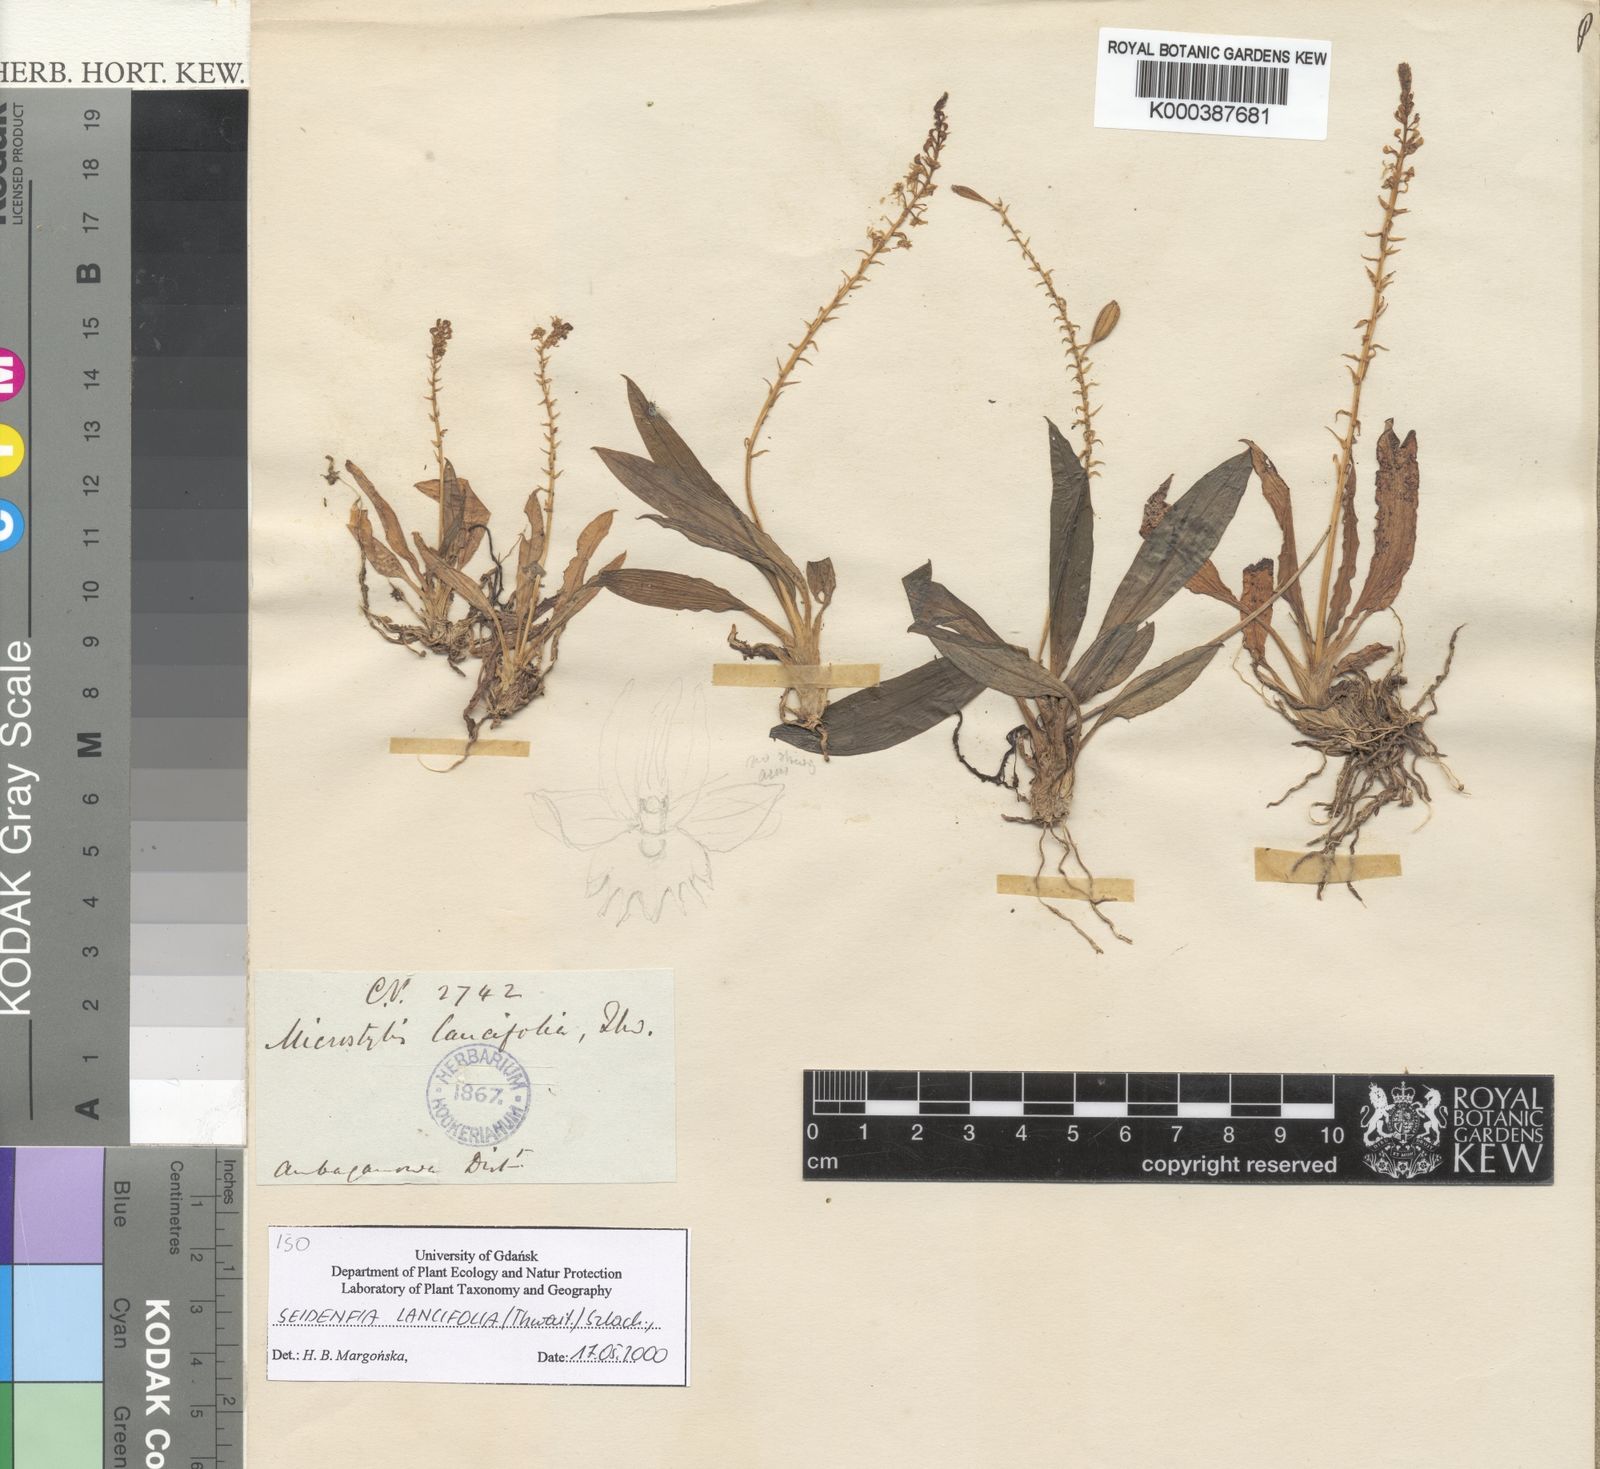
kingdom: Plantae
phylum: Tracheophyta
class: Liliopsida
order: Asparagales
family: Orchidaceae
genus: Crepidium
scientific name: Crepidium
